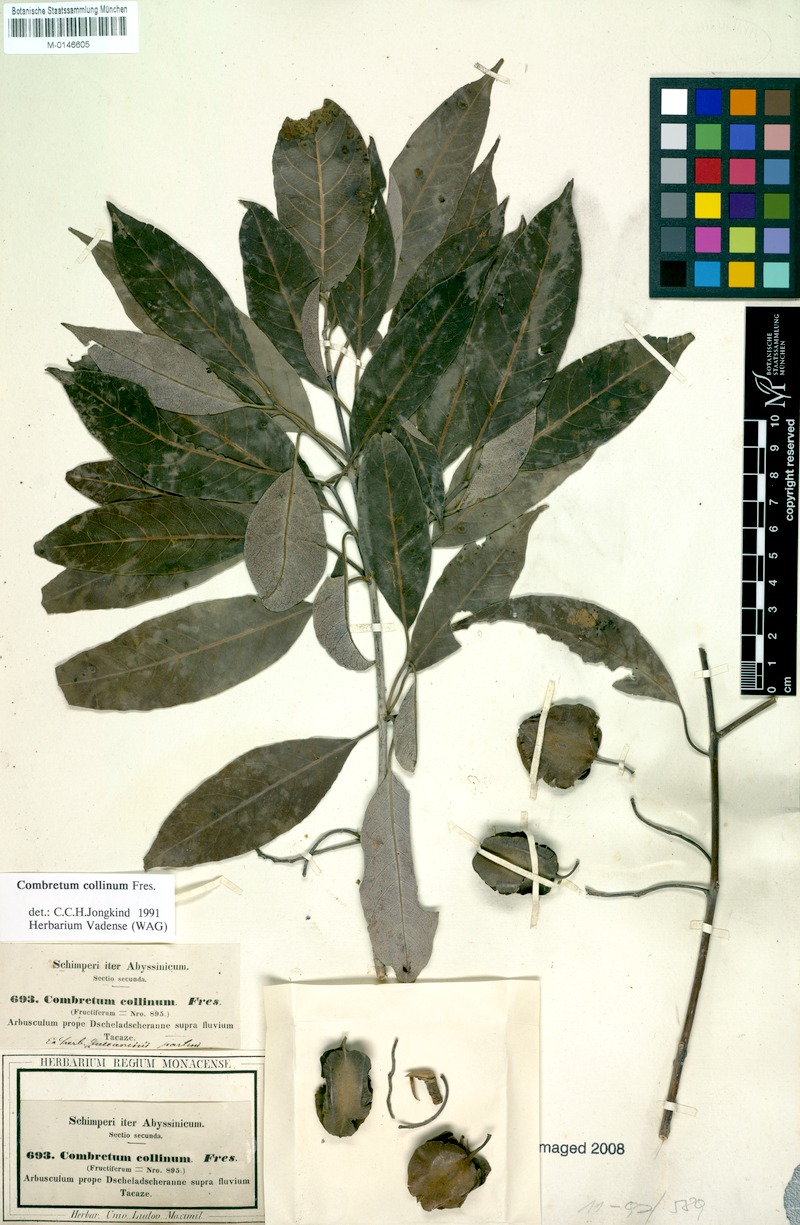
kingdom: Plantae
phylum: Tracheophyta
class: Magnoliopsida
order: Myrtales
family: Combretaceae
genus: Combretum
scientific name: Combretum collinum
